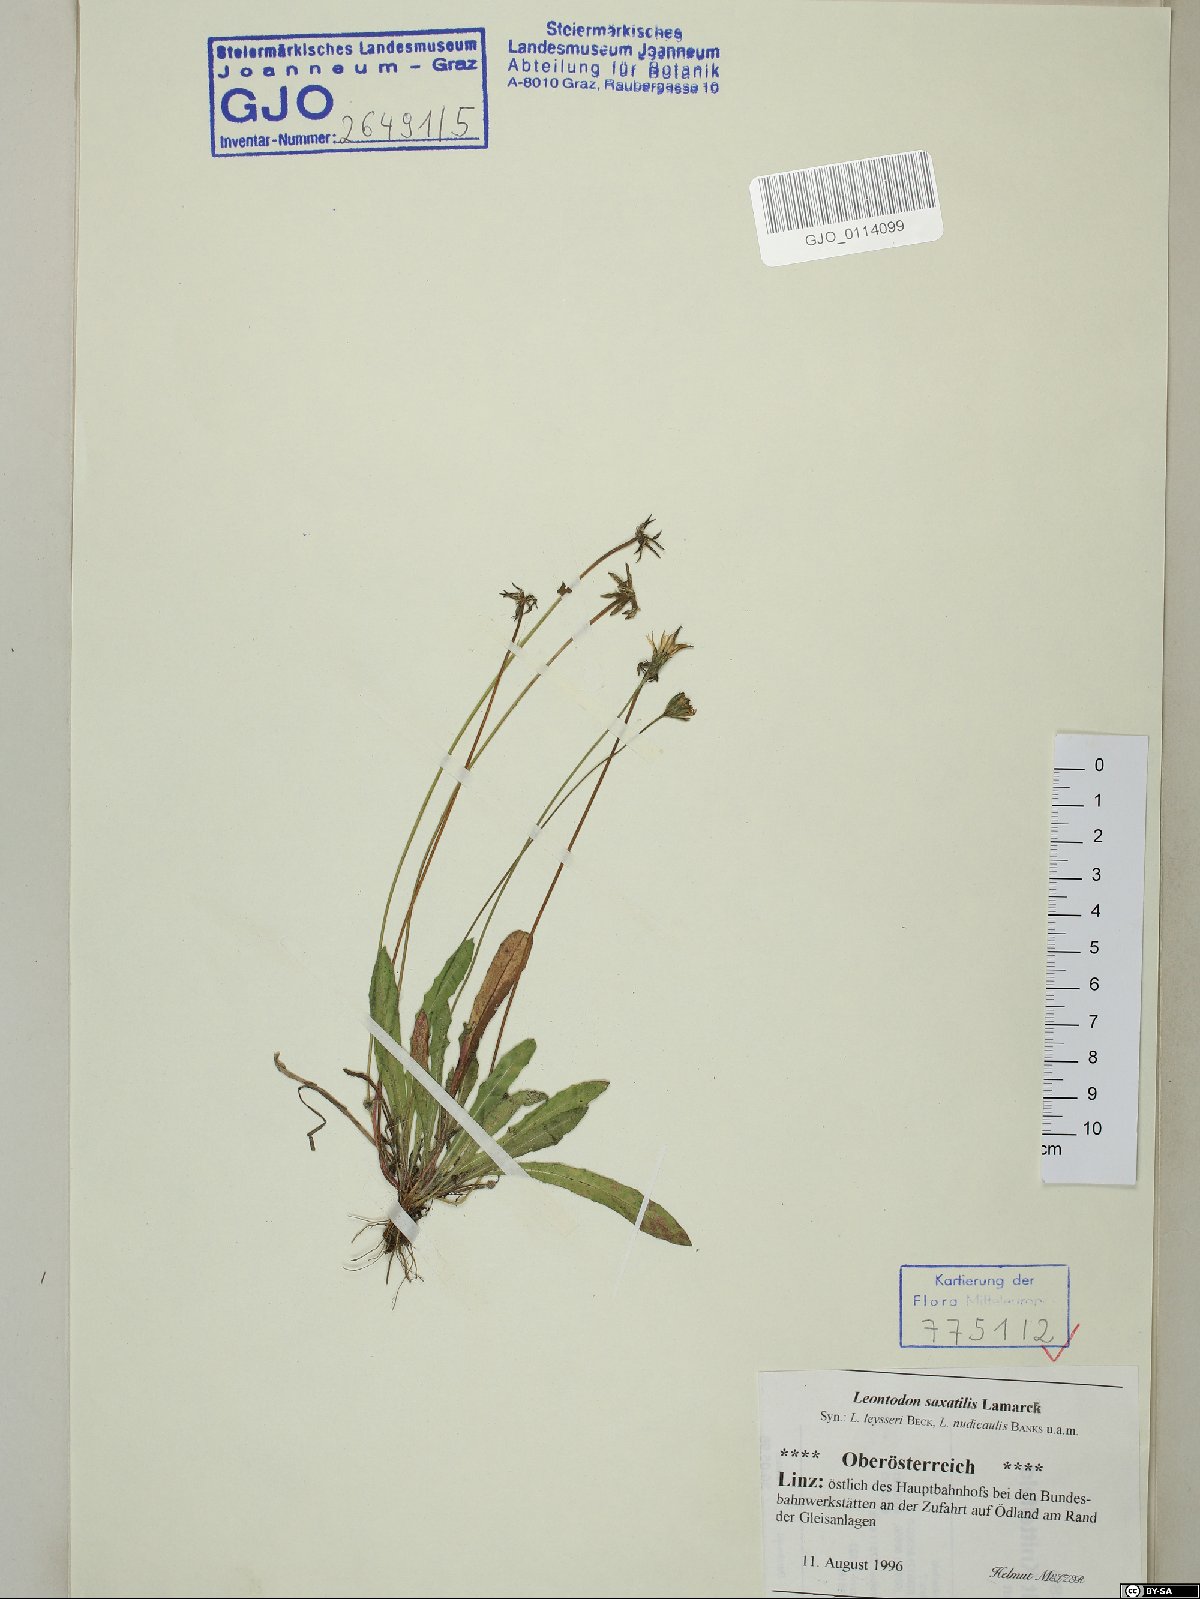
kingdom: Plantae
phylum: Tracheophyta
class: Magnoliopsida
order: Asterales
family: Asteraceae
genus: Thrincia
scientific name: Thrincia saxatilis
